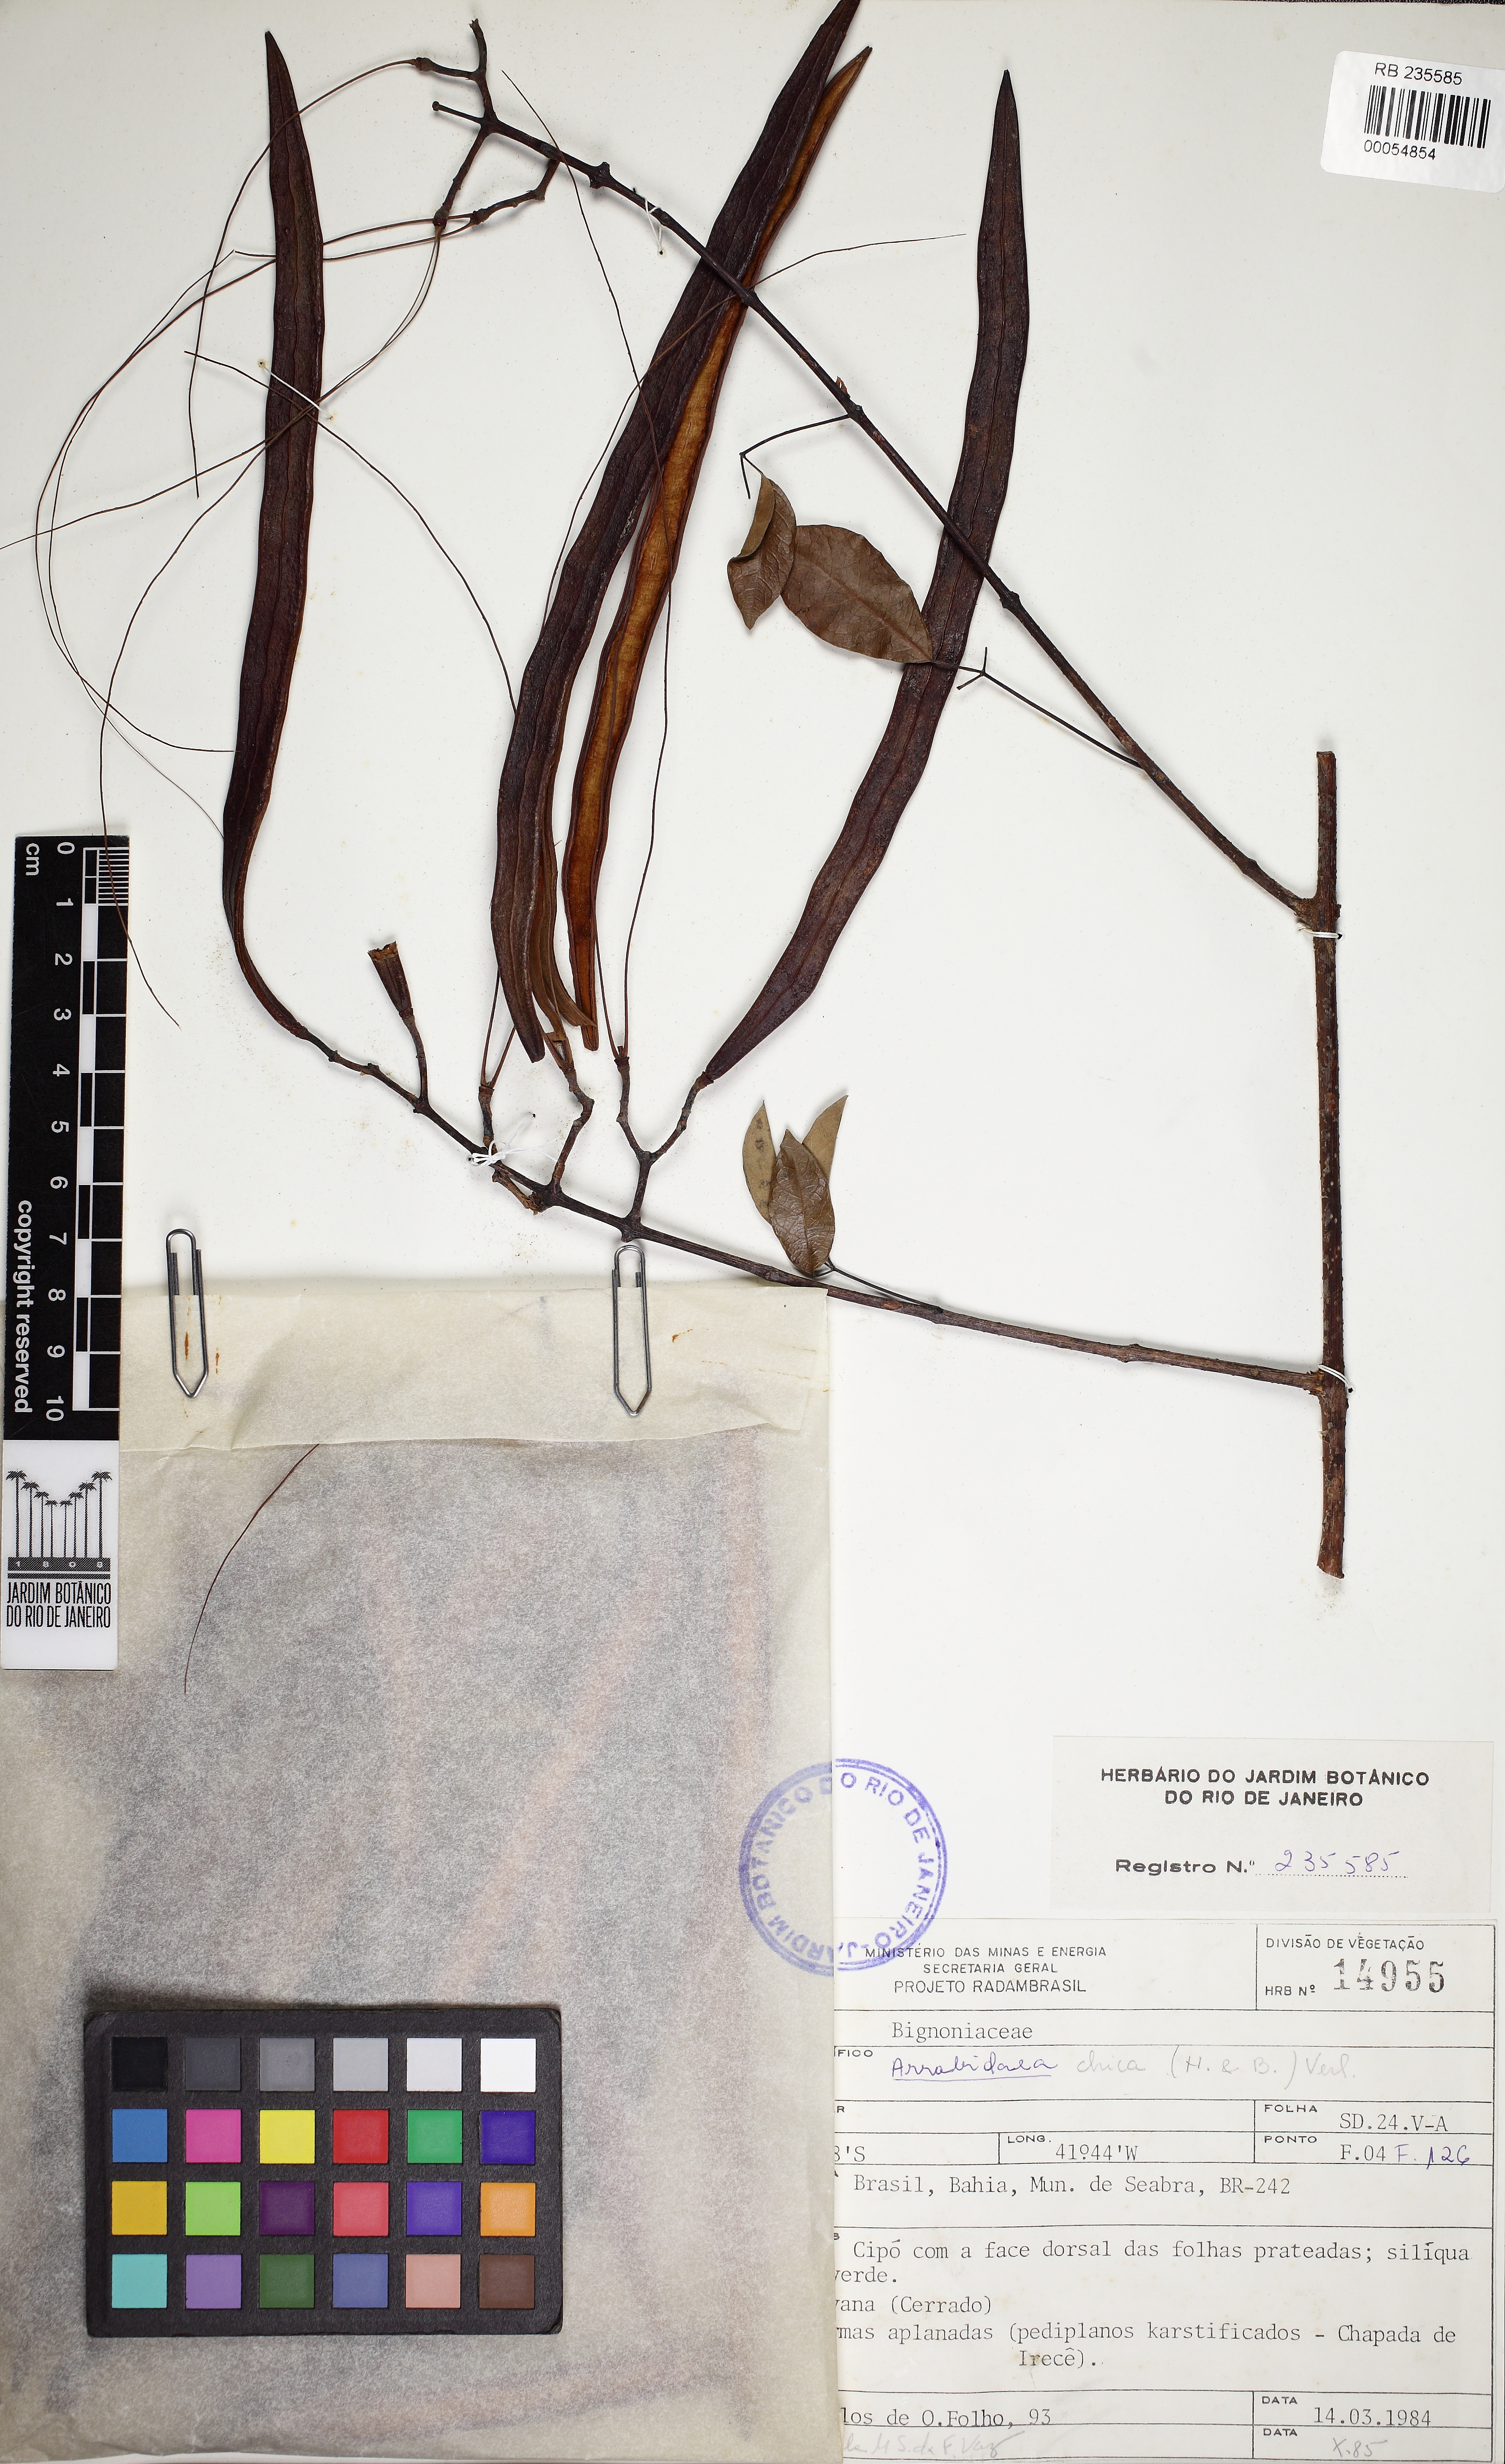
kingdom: Plantae
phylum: Tracheophyta
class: Magnoliopsida
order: Lamiales
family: Bignoniaceae
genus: Fridericia
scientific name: Fridericia chica
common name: Cricketvine
